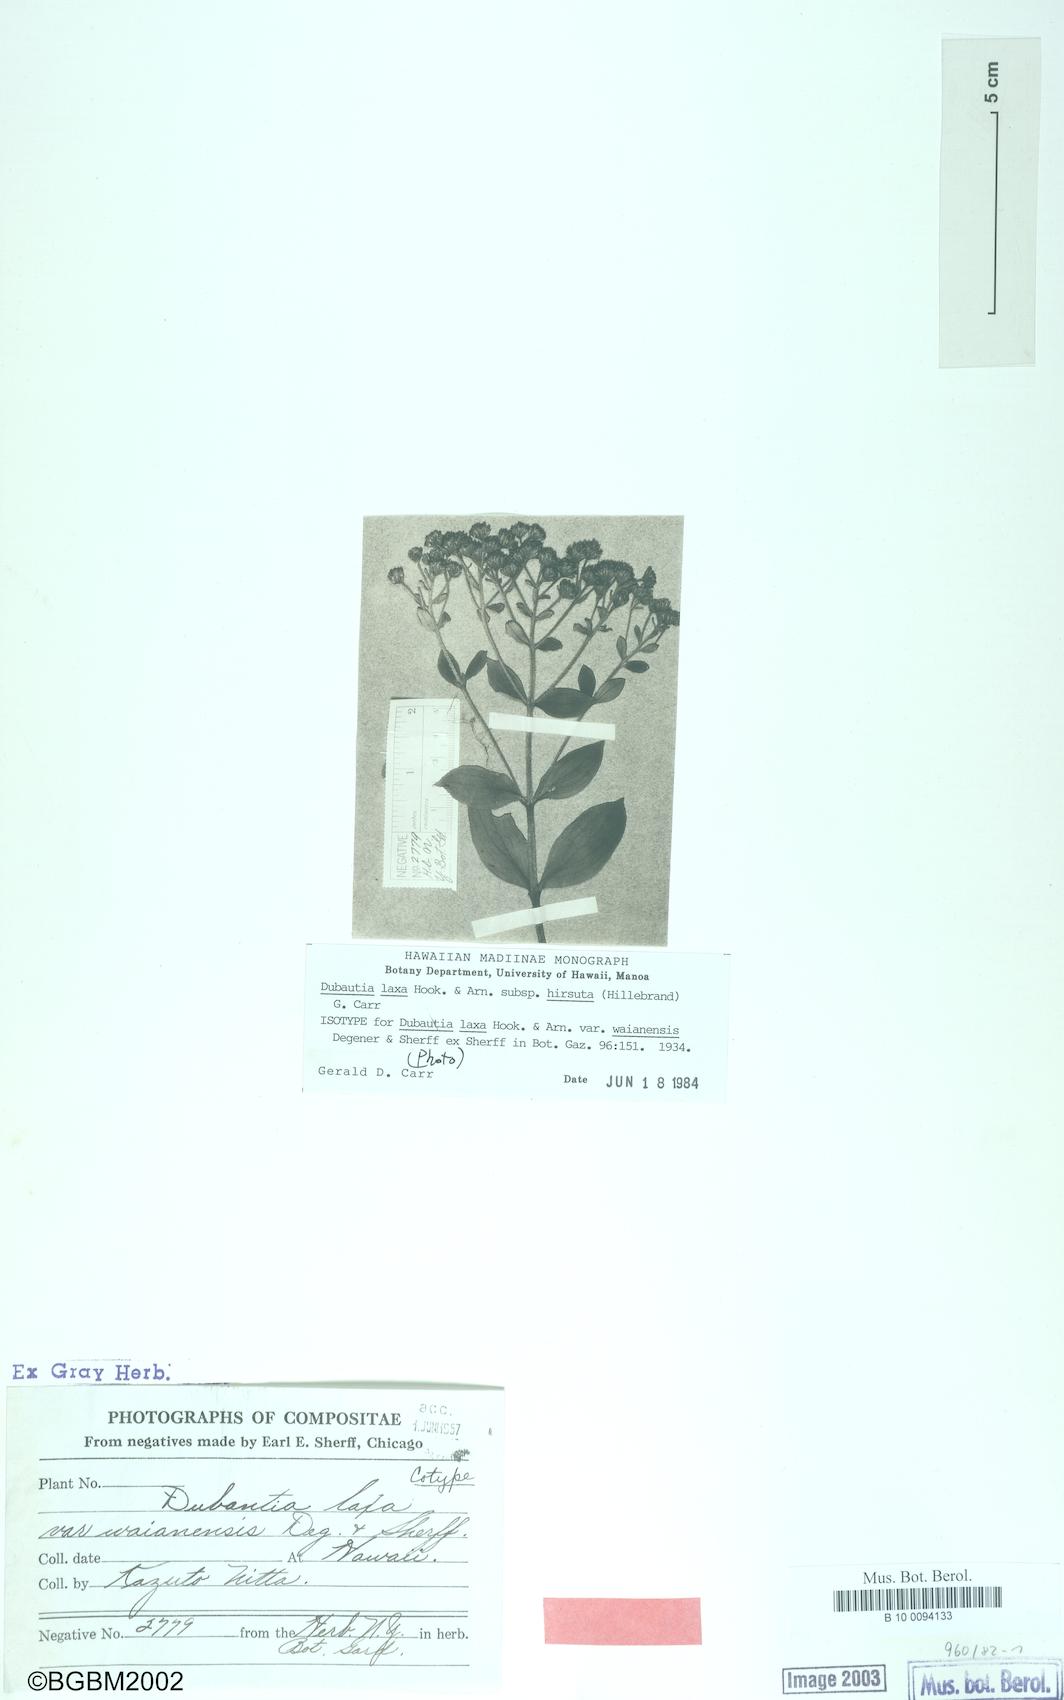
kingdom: Plantae
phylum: Tracheophyta
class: Magnoliopsida
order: Asterales
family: Asteraceae
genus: Dubautia
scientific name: Dubautia laxa
